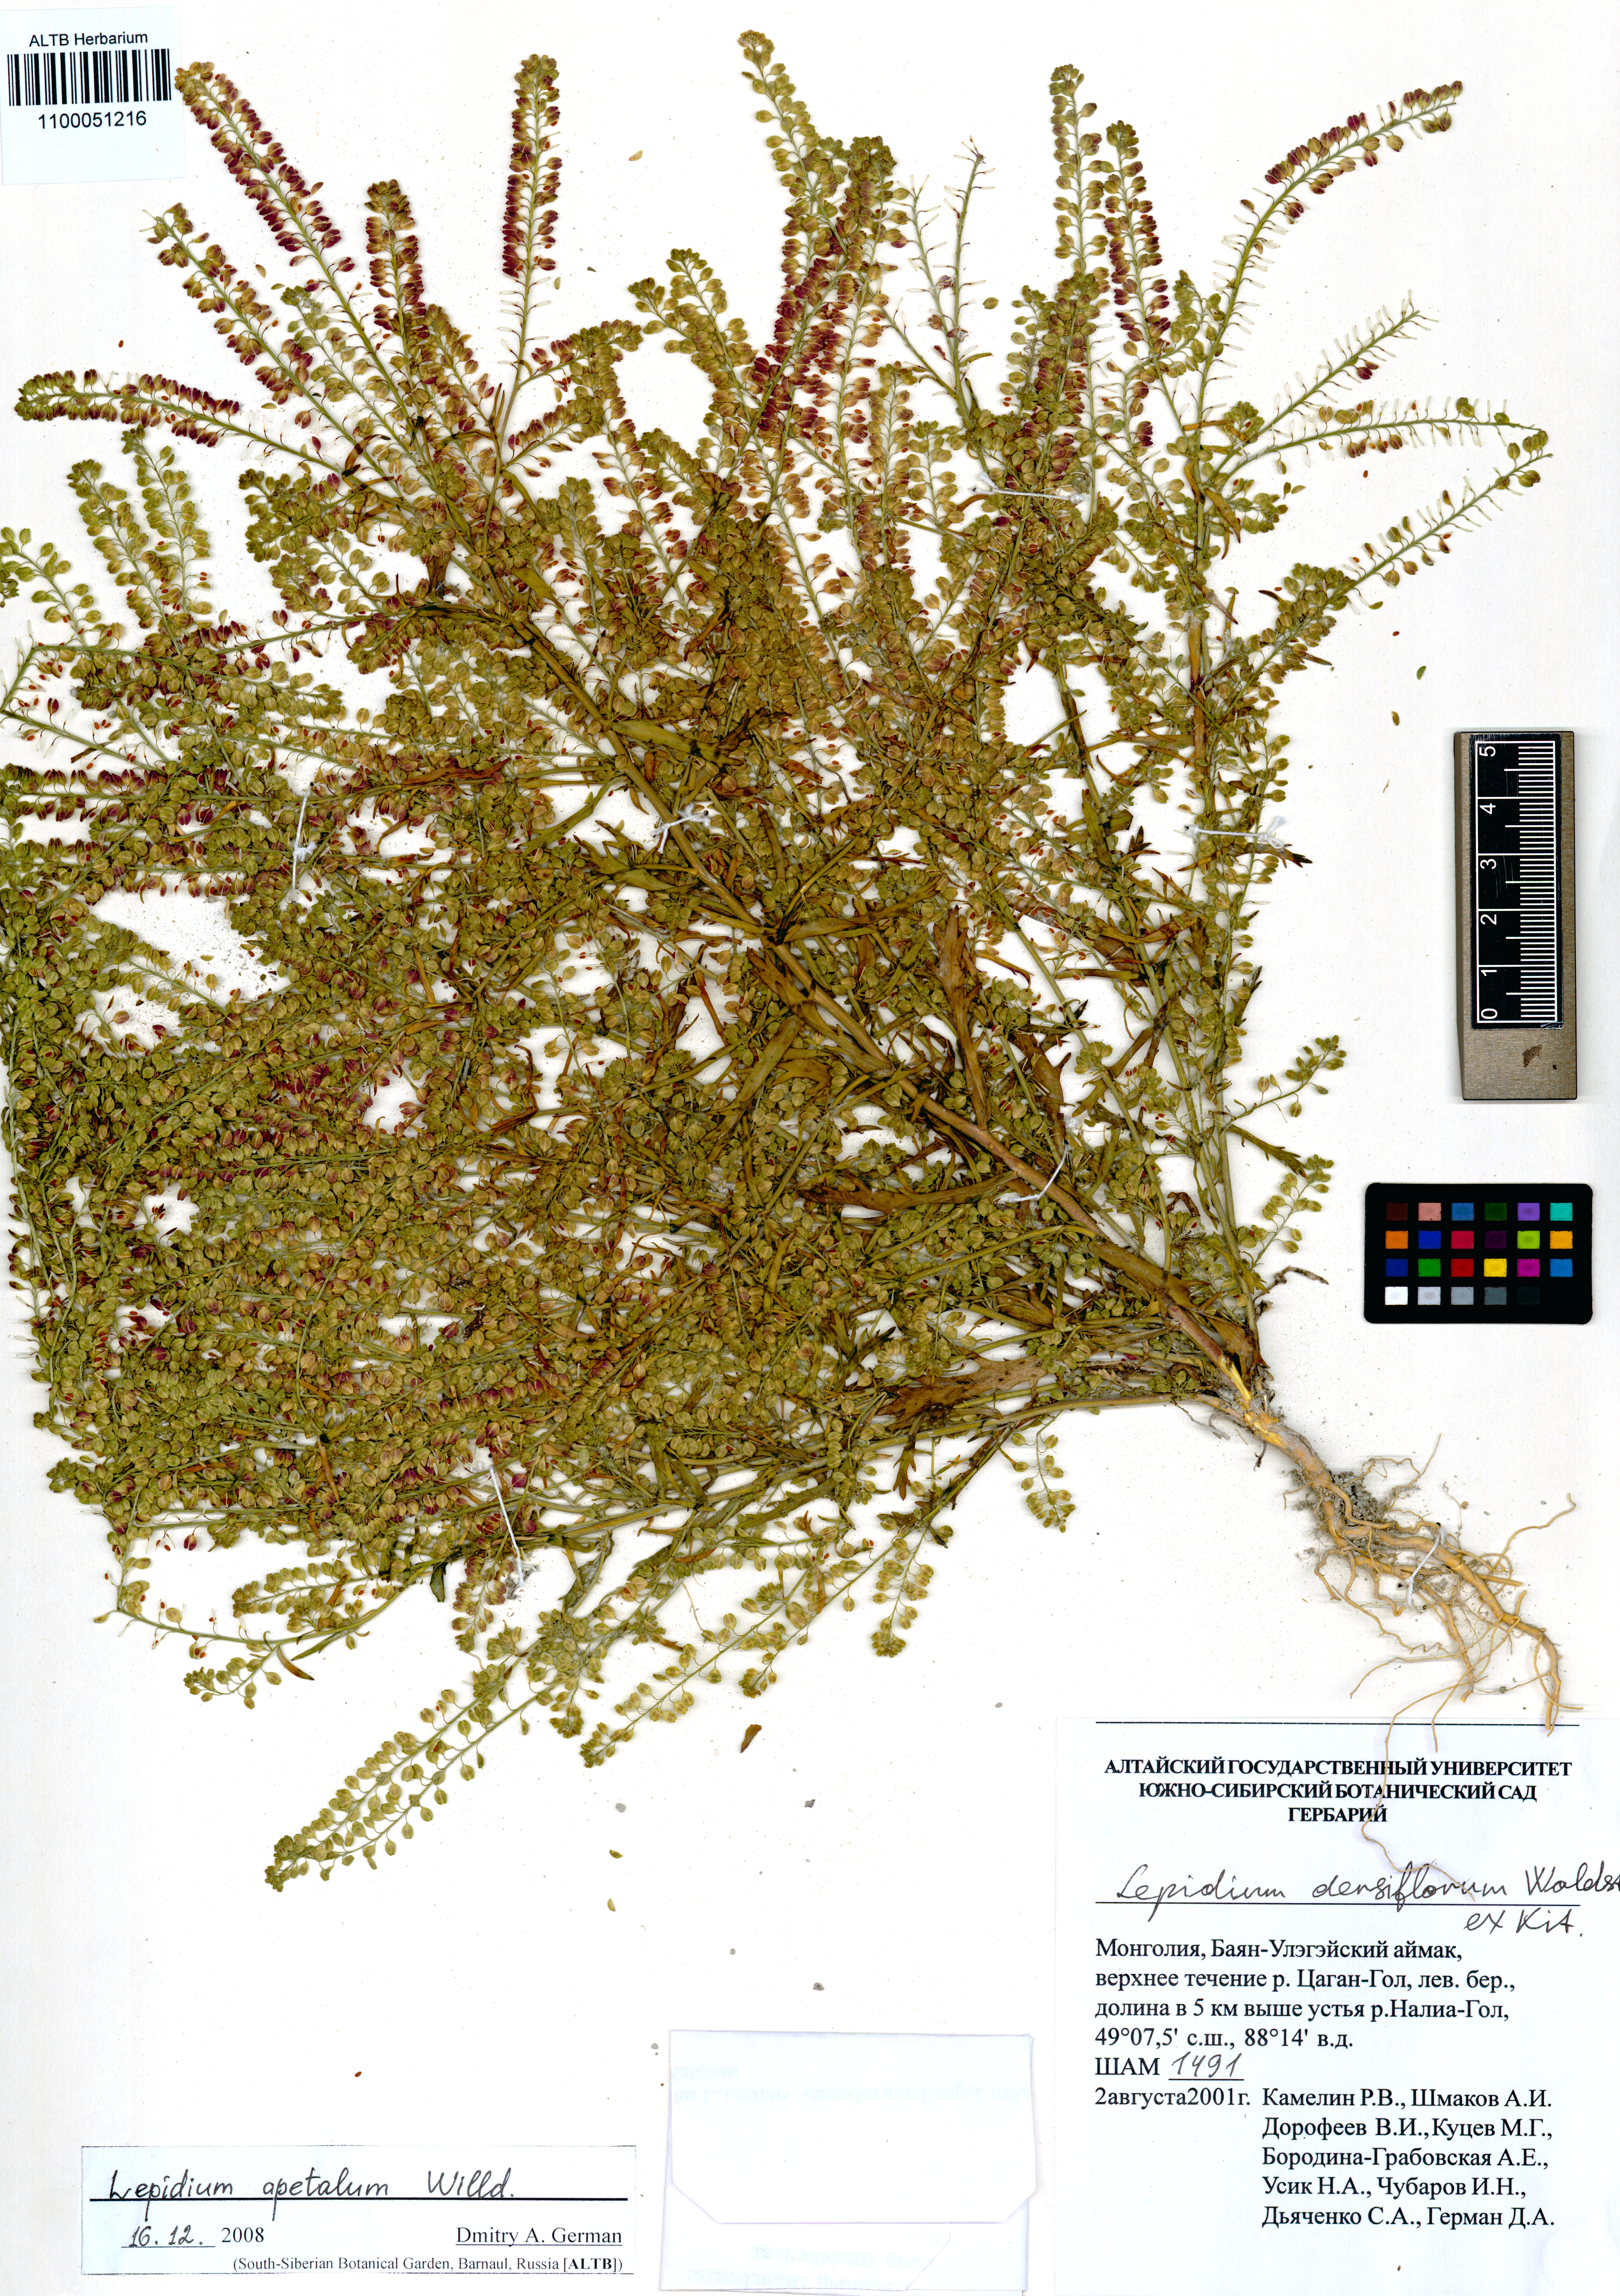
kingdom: Plantae
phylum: Tracheophyta
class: Magnoliopsida
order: Brassicales
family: Brassicaceae
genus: Lepidium
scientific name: Lepidium apetalum
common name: Pepperweed
